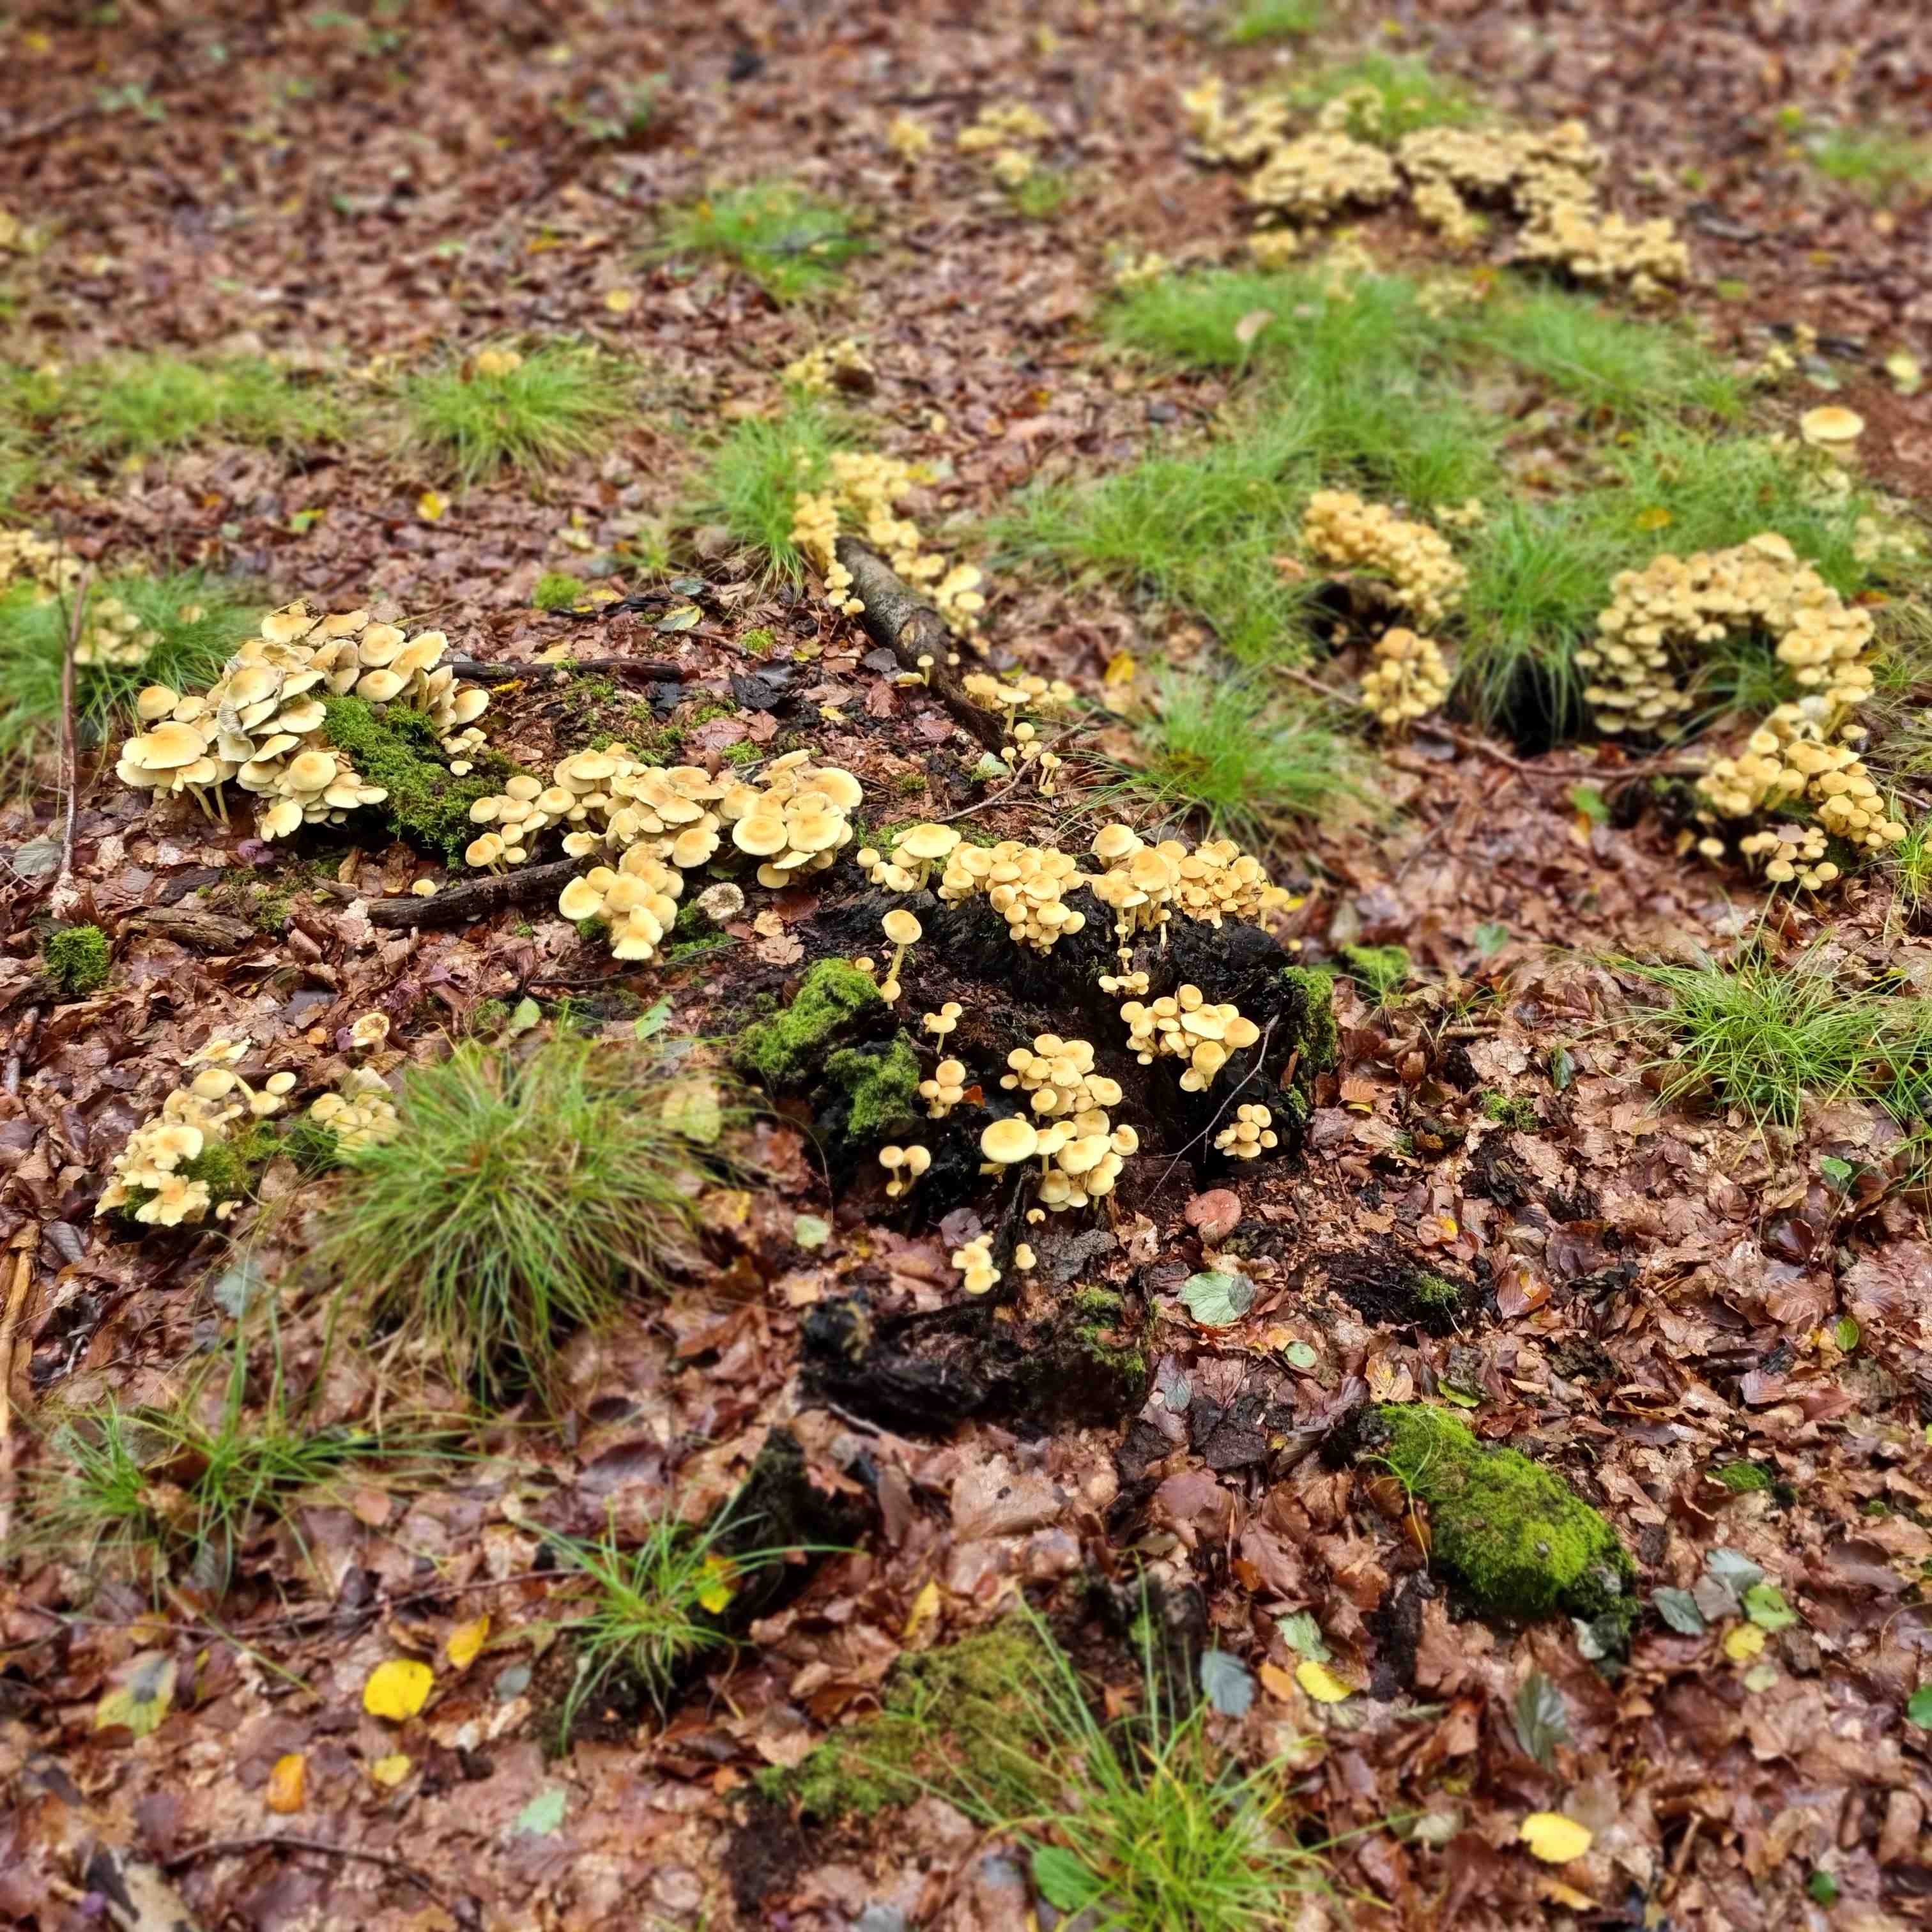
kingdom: Fungi
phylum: Basidiomycota
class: Agaricomycetes
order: Agaricales
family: Strophariaceae
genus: Hypholoma
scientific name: Hypholoma fasciculare
